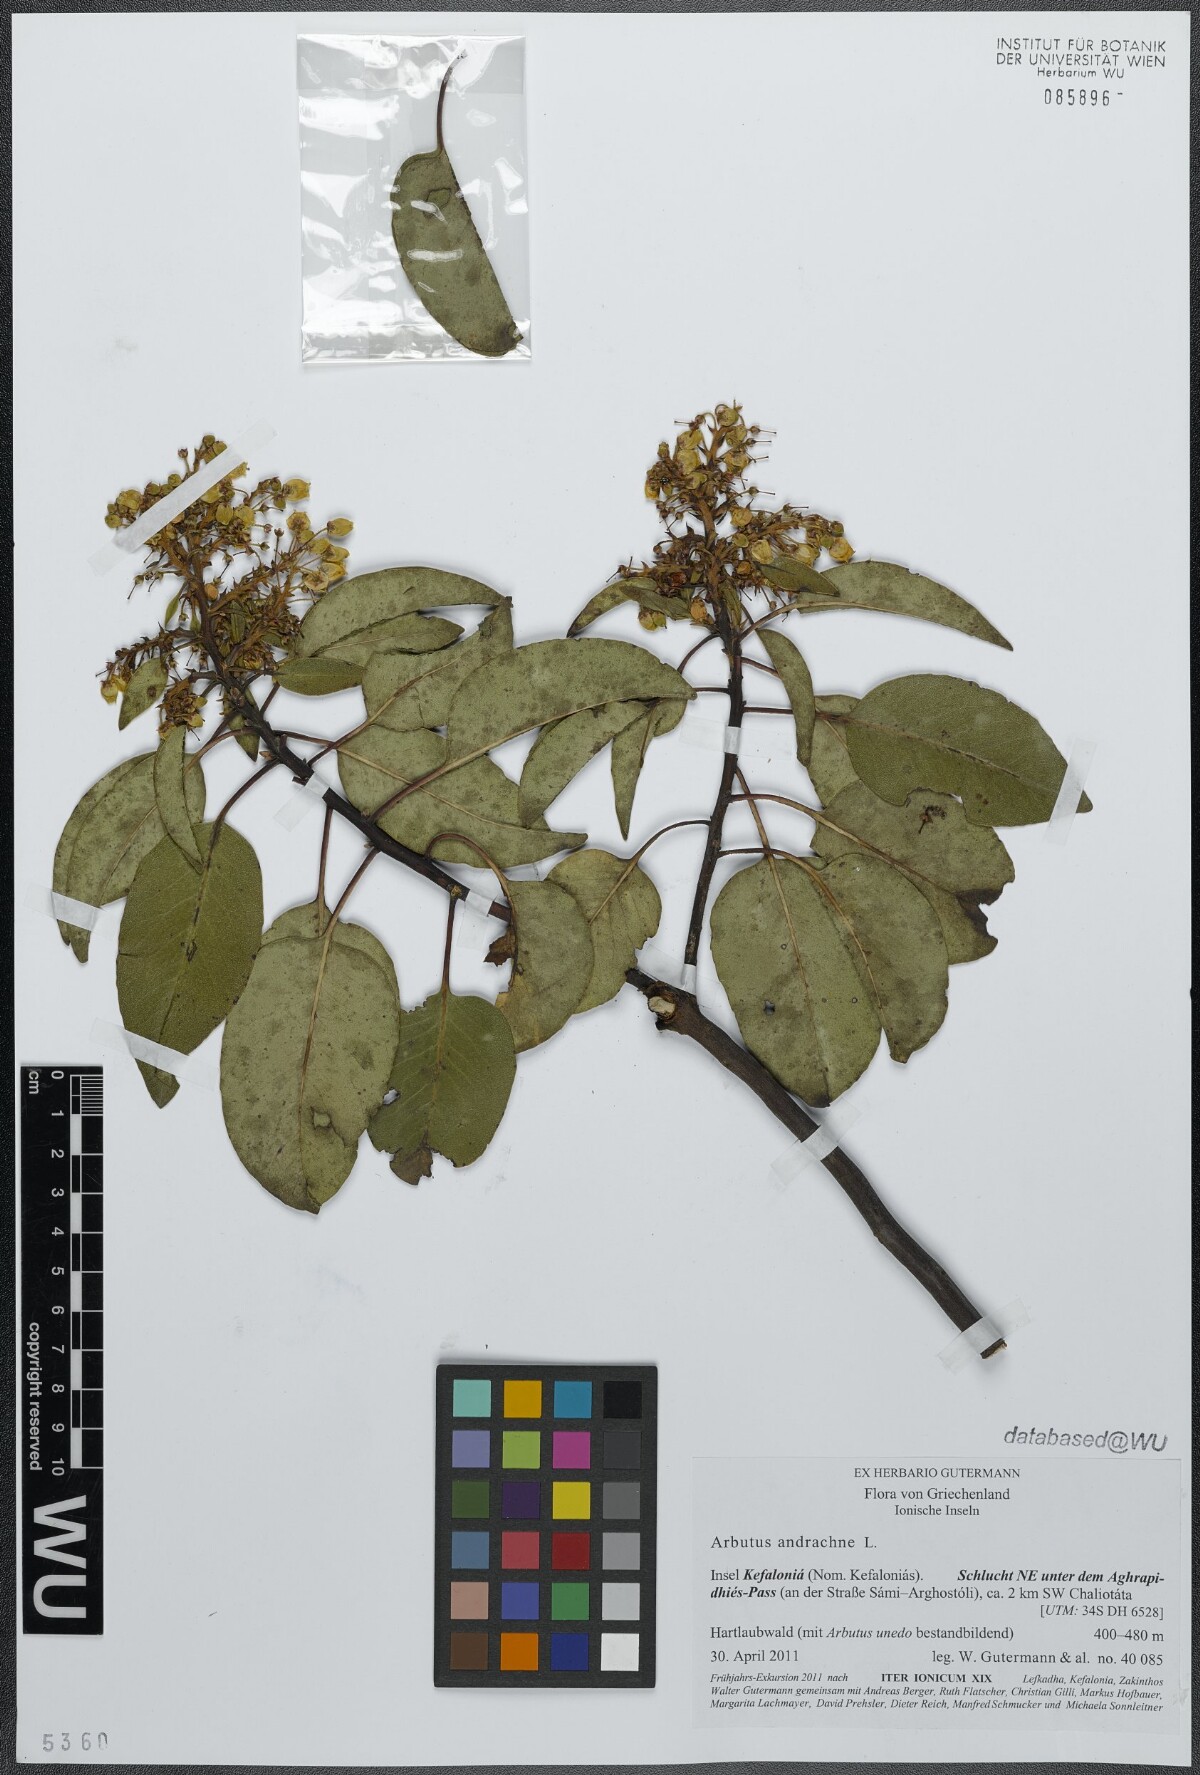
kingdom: Plantae
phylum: Tracheophyta
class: Magnoliopsida
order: Ericales
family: Ericaceae
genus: Arbutus
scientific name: Arbutus andrachne
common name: Greek strawberry tree
